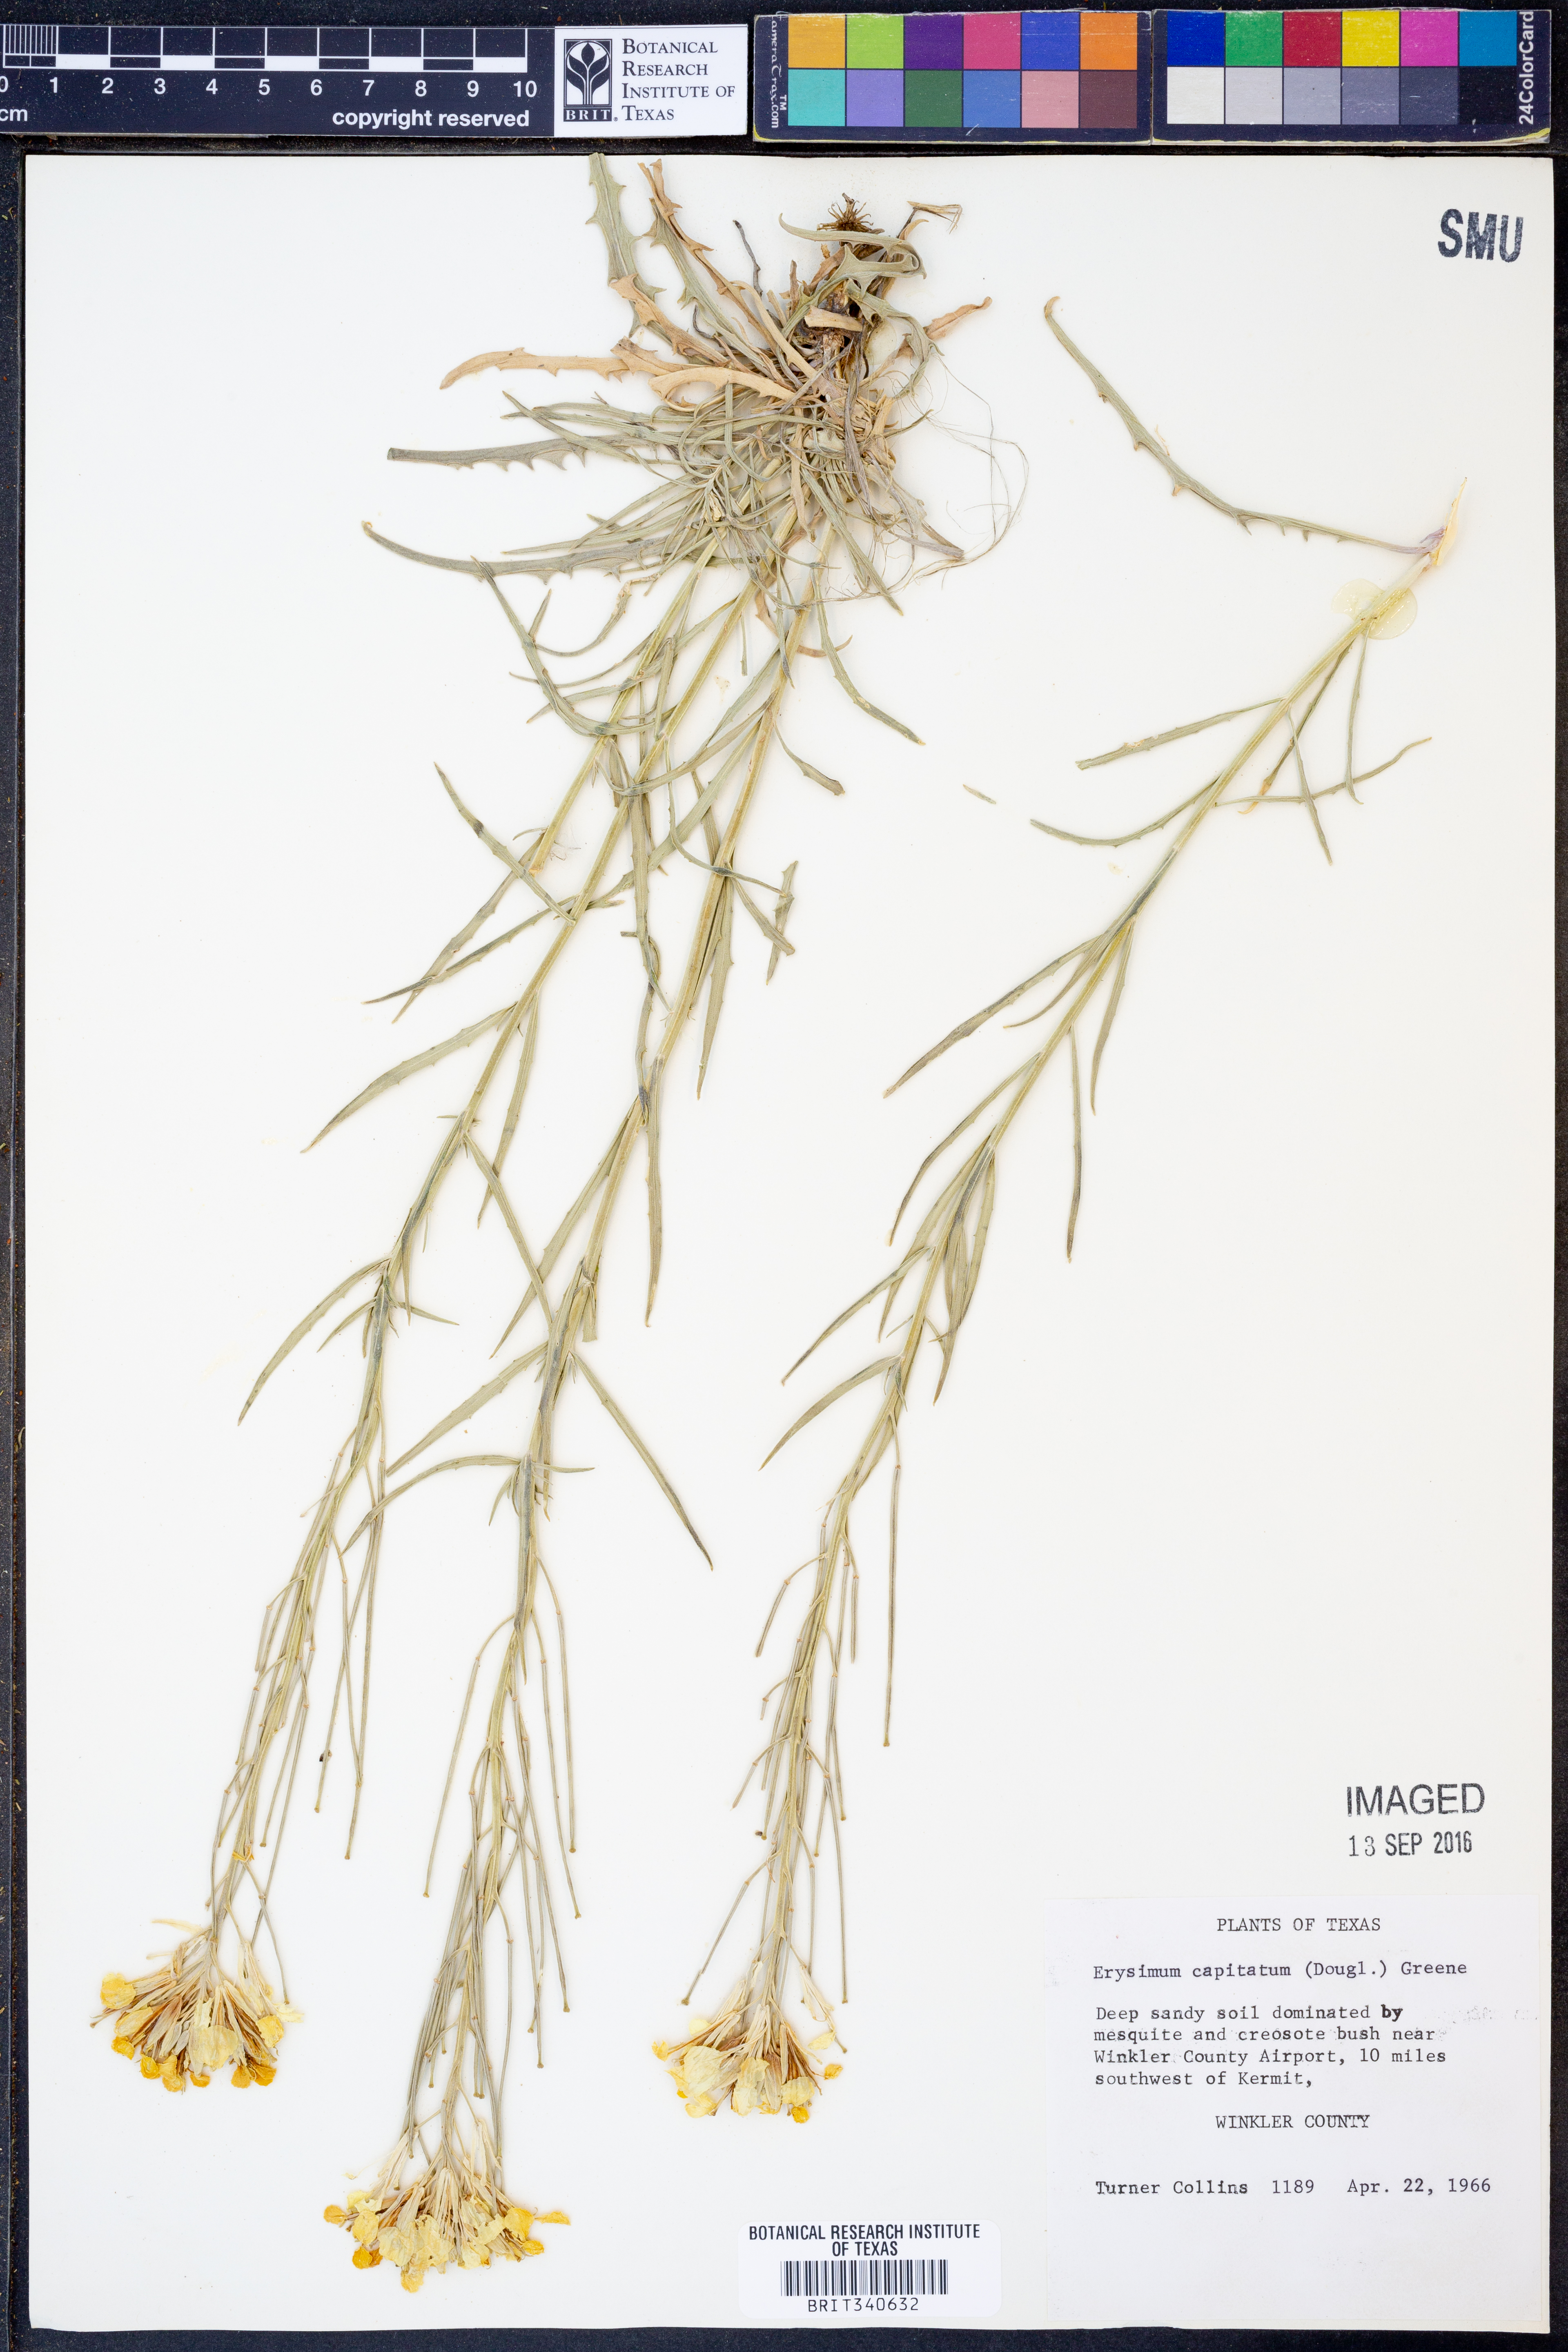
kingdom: Plantae
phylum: Tracheophyta
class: Magnoliopsida
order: Brassicales
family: Brassicaceae
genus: Erysimum
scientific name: Erysimum capitatum
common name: Western wallflower
